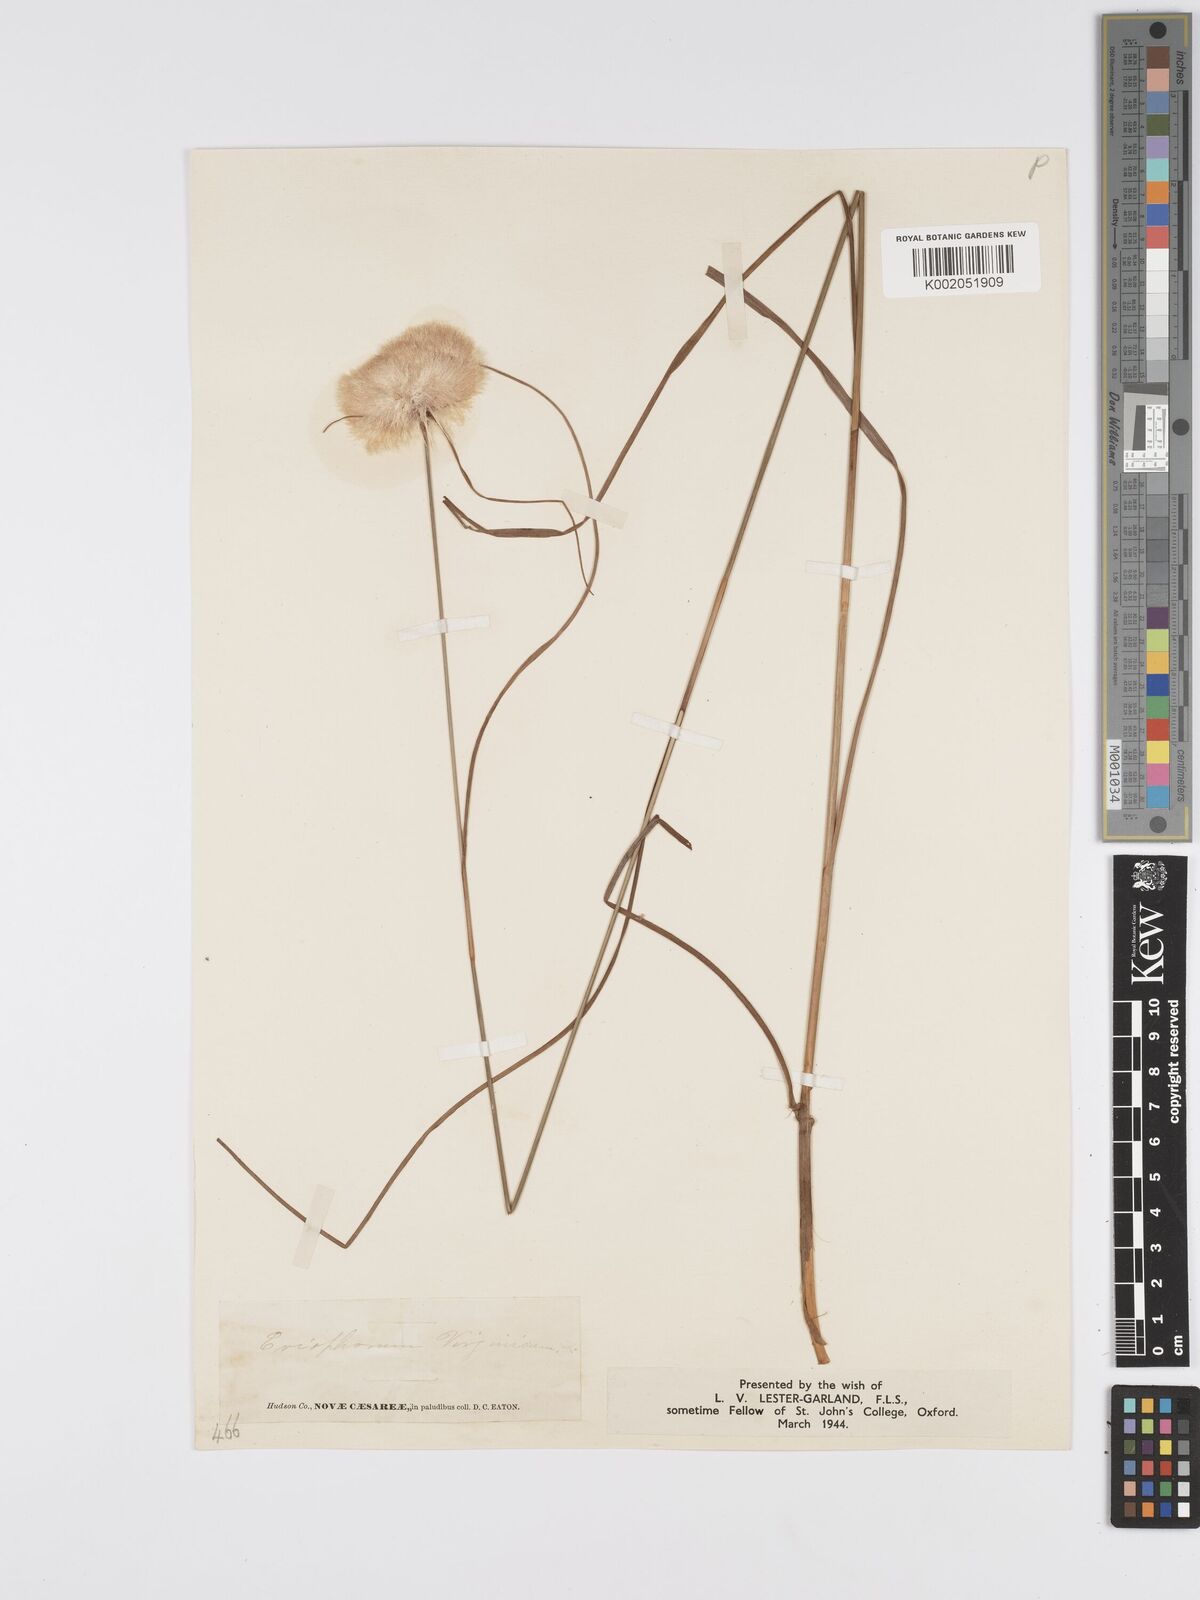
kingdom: Plantae
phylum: Tracheophyta
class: Liliopsida
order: Poales
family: Cyperaceae
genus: Eriophorum
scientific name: Eriophorum virginicum
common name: Tawny cottongrass
